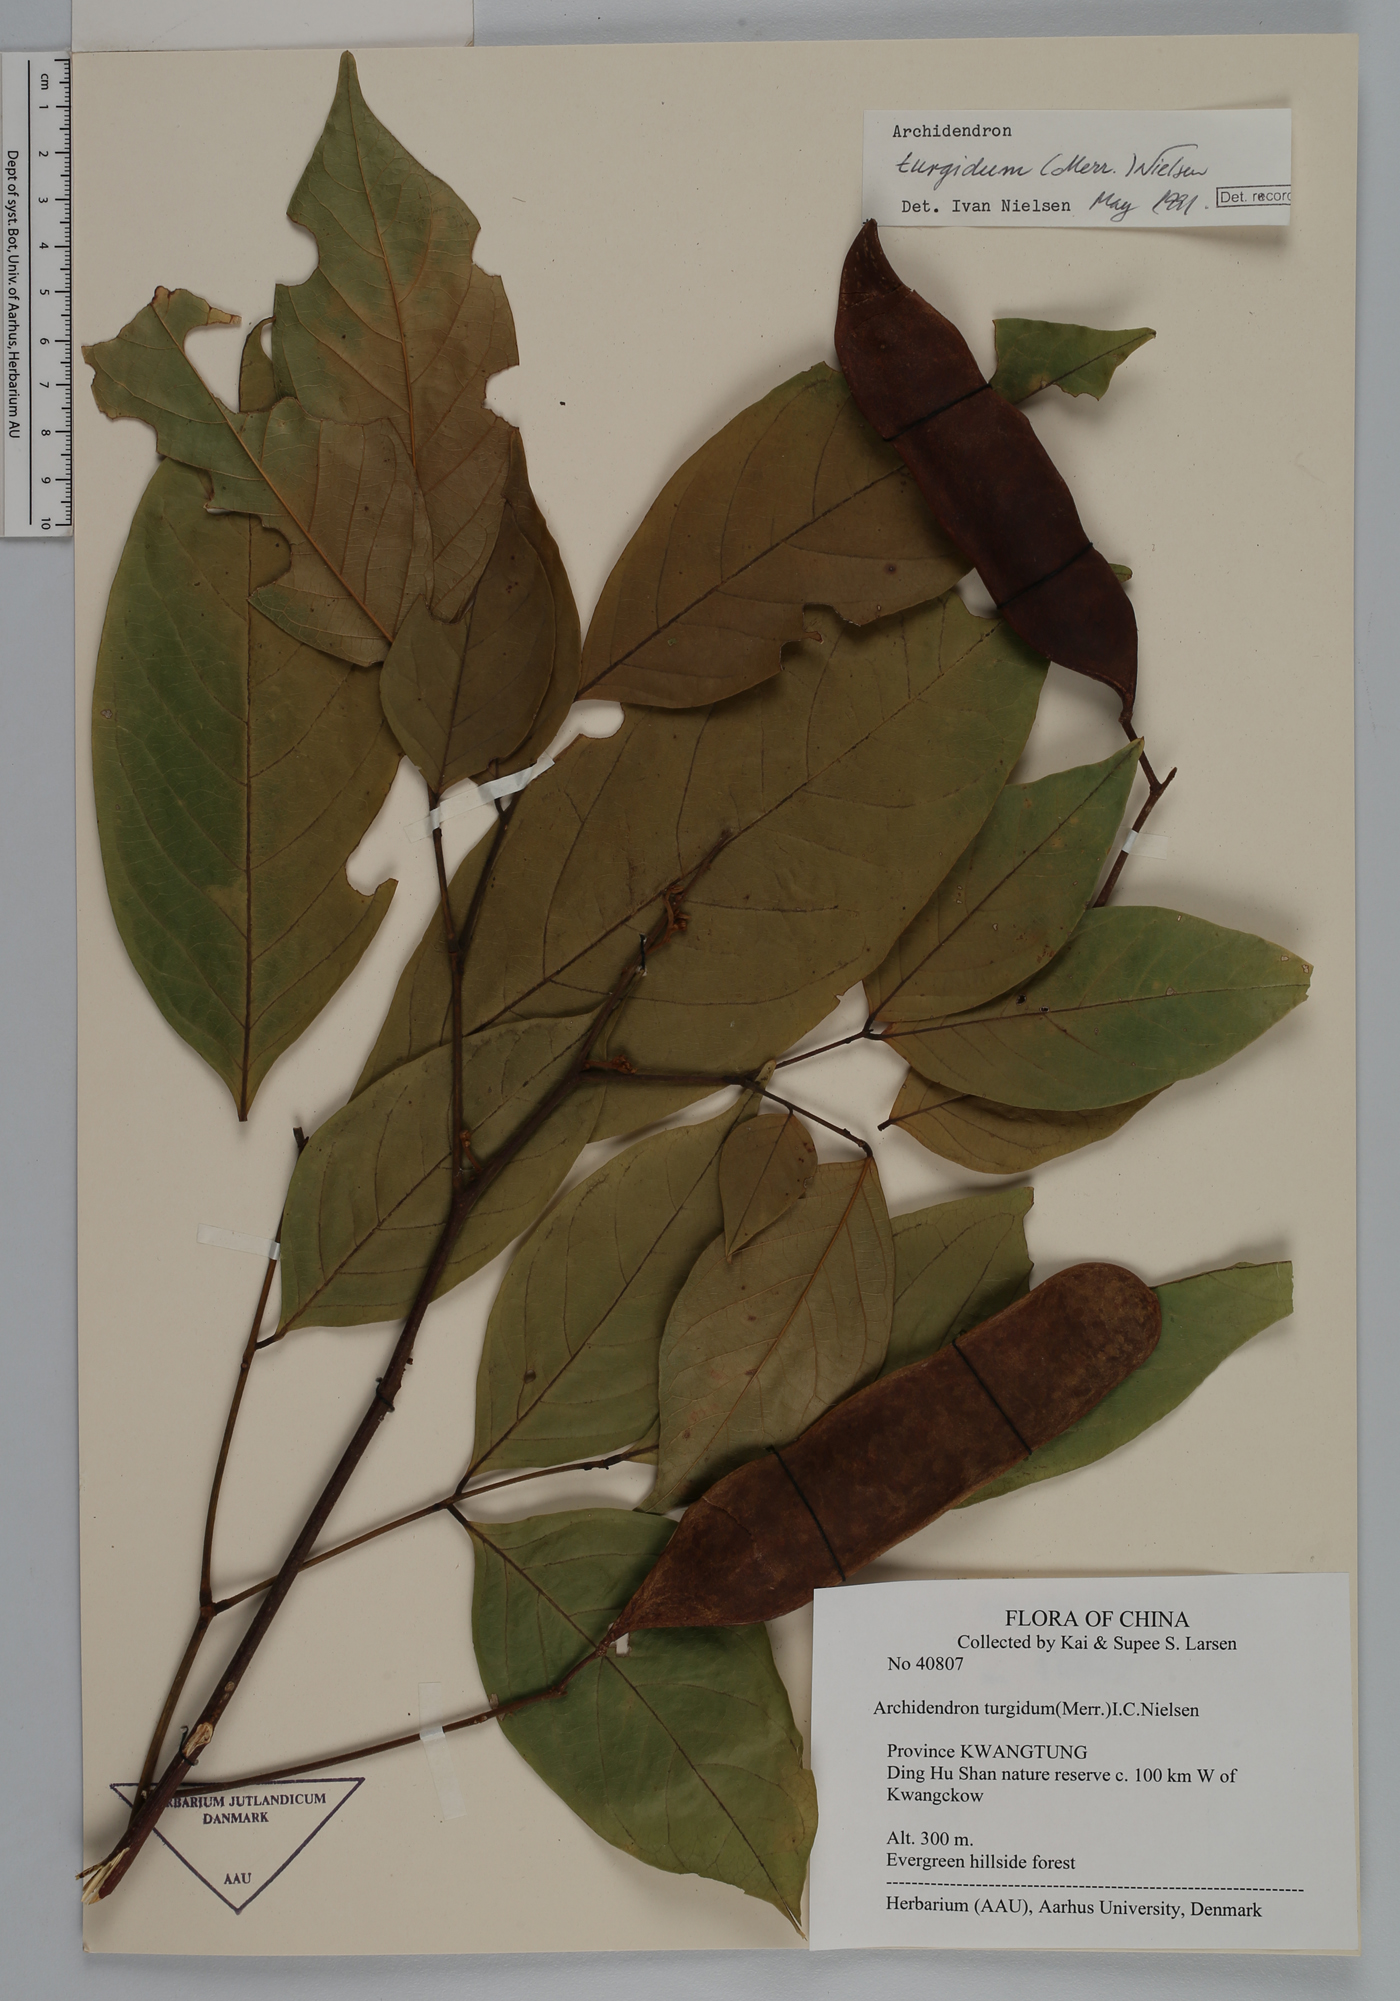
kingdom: Plantae
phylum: Tracheophyta
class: Magnoliopsida
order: Fabales
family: Fabaceae
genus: Archidendron
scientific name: Archidendron turgidum
